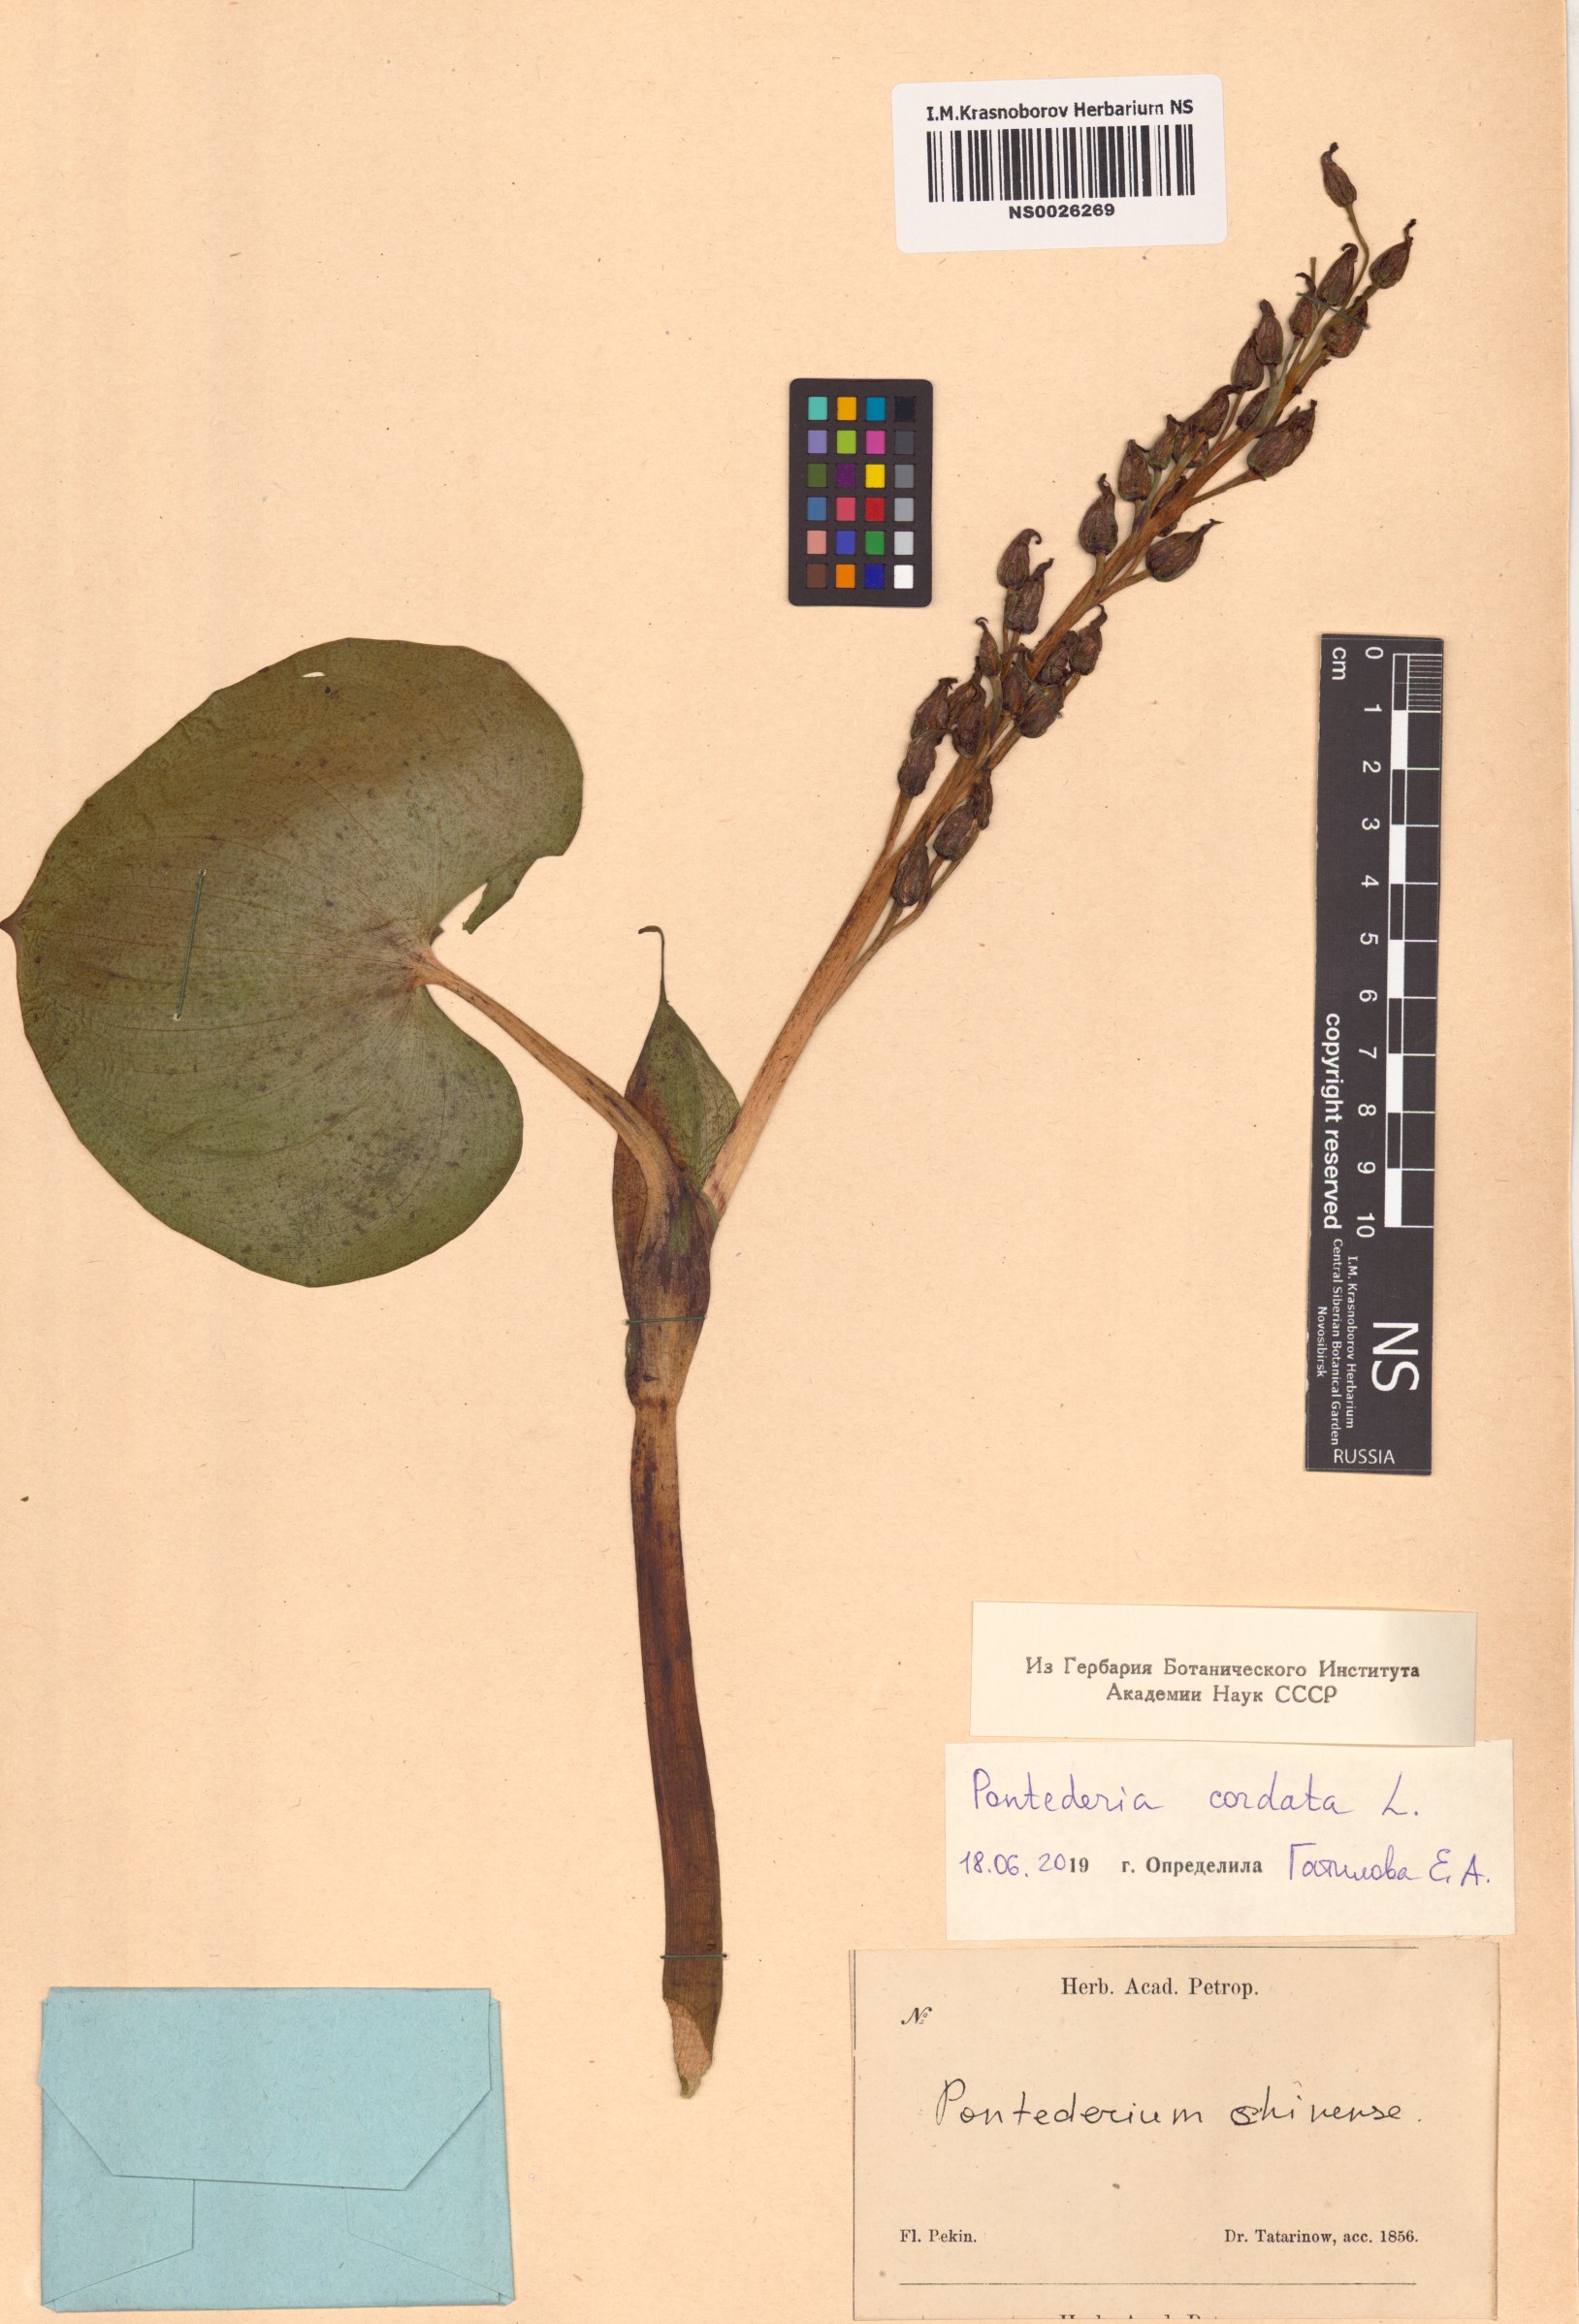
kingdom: Plantae
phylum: Tracheophyta
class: Liliopsida
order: Commelinales
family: Pontederiaceae
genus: Pontederia
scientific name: Pontederia cordata
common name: Pickerelweed
